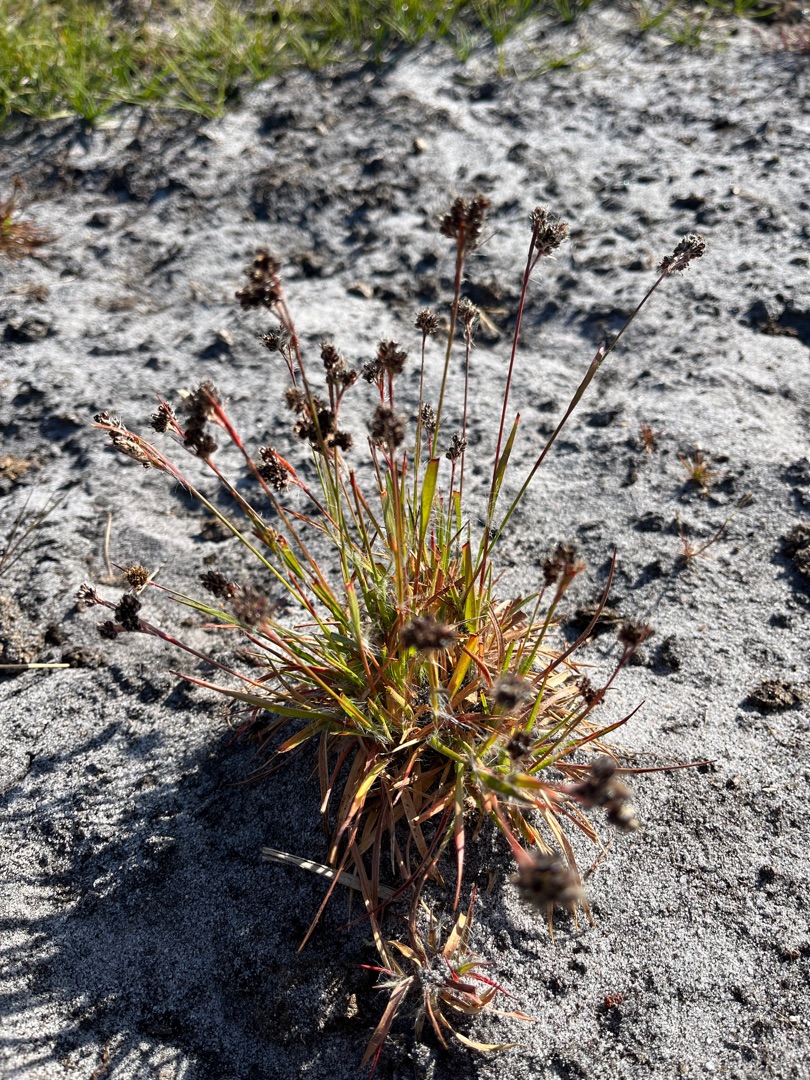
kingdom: Plantae
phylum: Tracheophyta
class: Liliopsida
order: Poales
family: Juncaceae
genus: Luzula
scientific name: Luzula multiflora
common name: Mangeblomstret frytle
